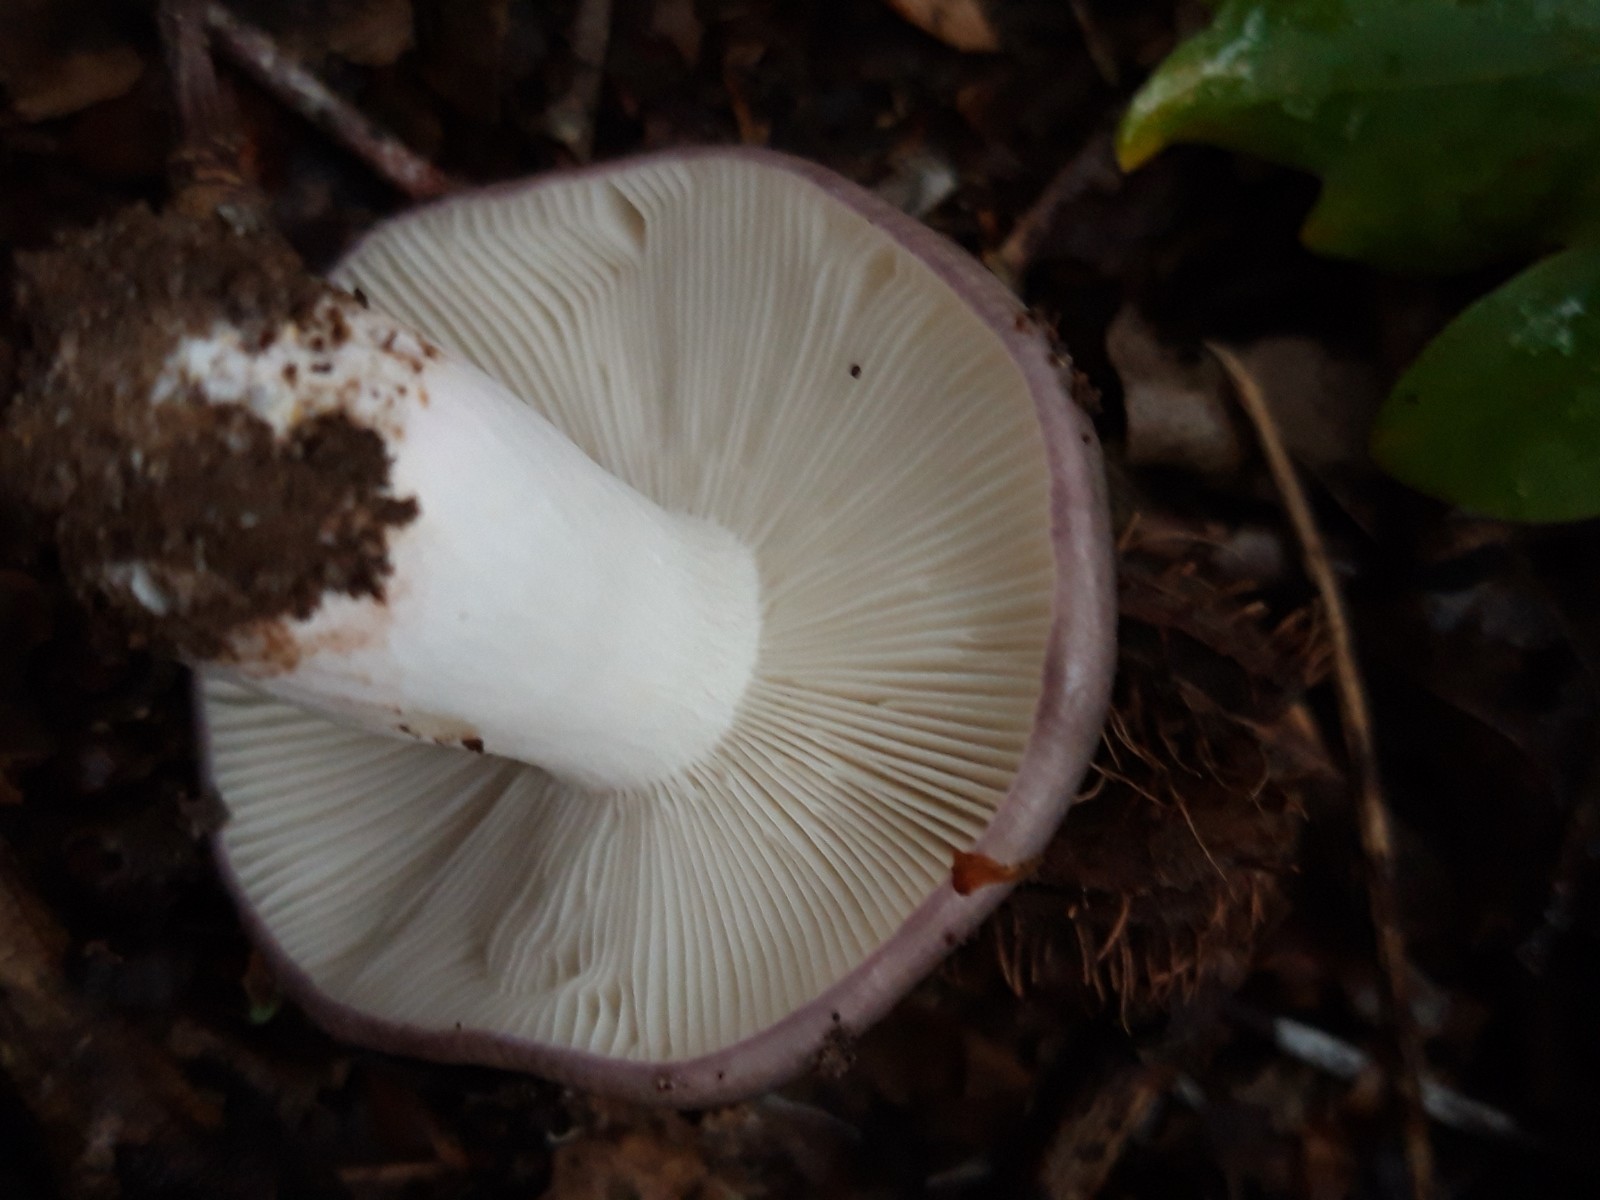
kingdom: Fungi
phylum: Basidiomycota
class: Agaricomycetes
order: Russulales
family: Russulaceae
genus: Russula
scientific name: Russula cyanoxantha
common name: broget skørhat
